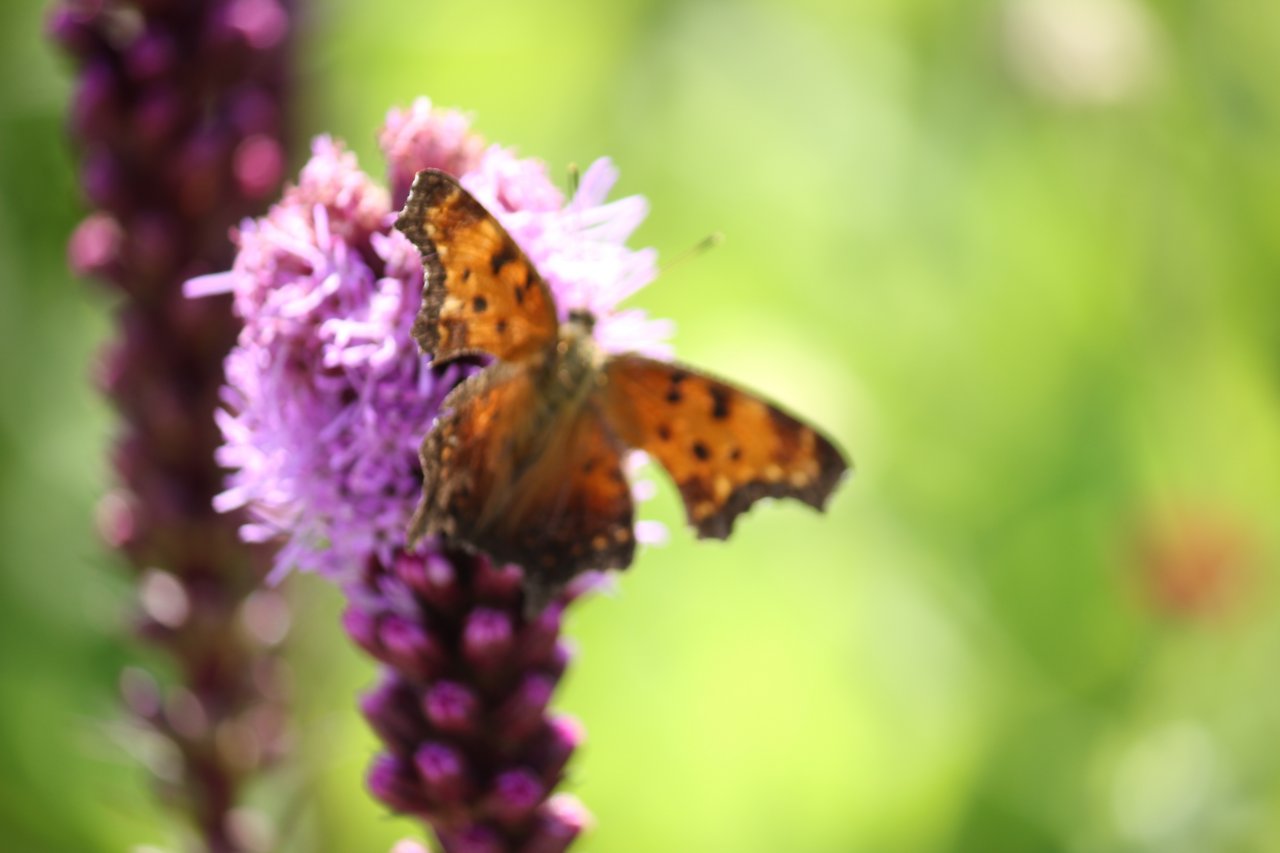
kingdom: Animalia
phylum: Arthropoda
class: Insecta
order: Lepidoptera
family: Nymphalidae
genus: Polygonia
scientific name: Polygonia progne
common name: Gray Comma
